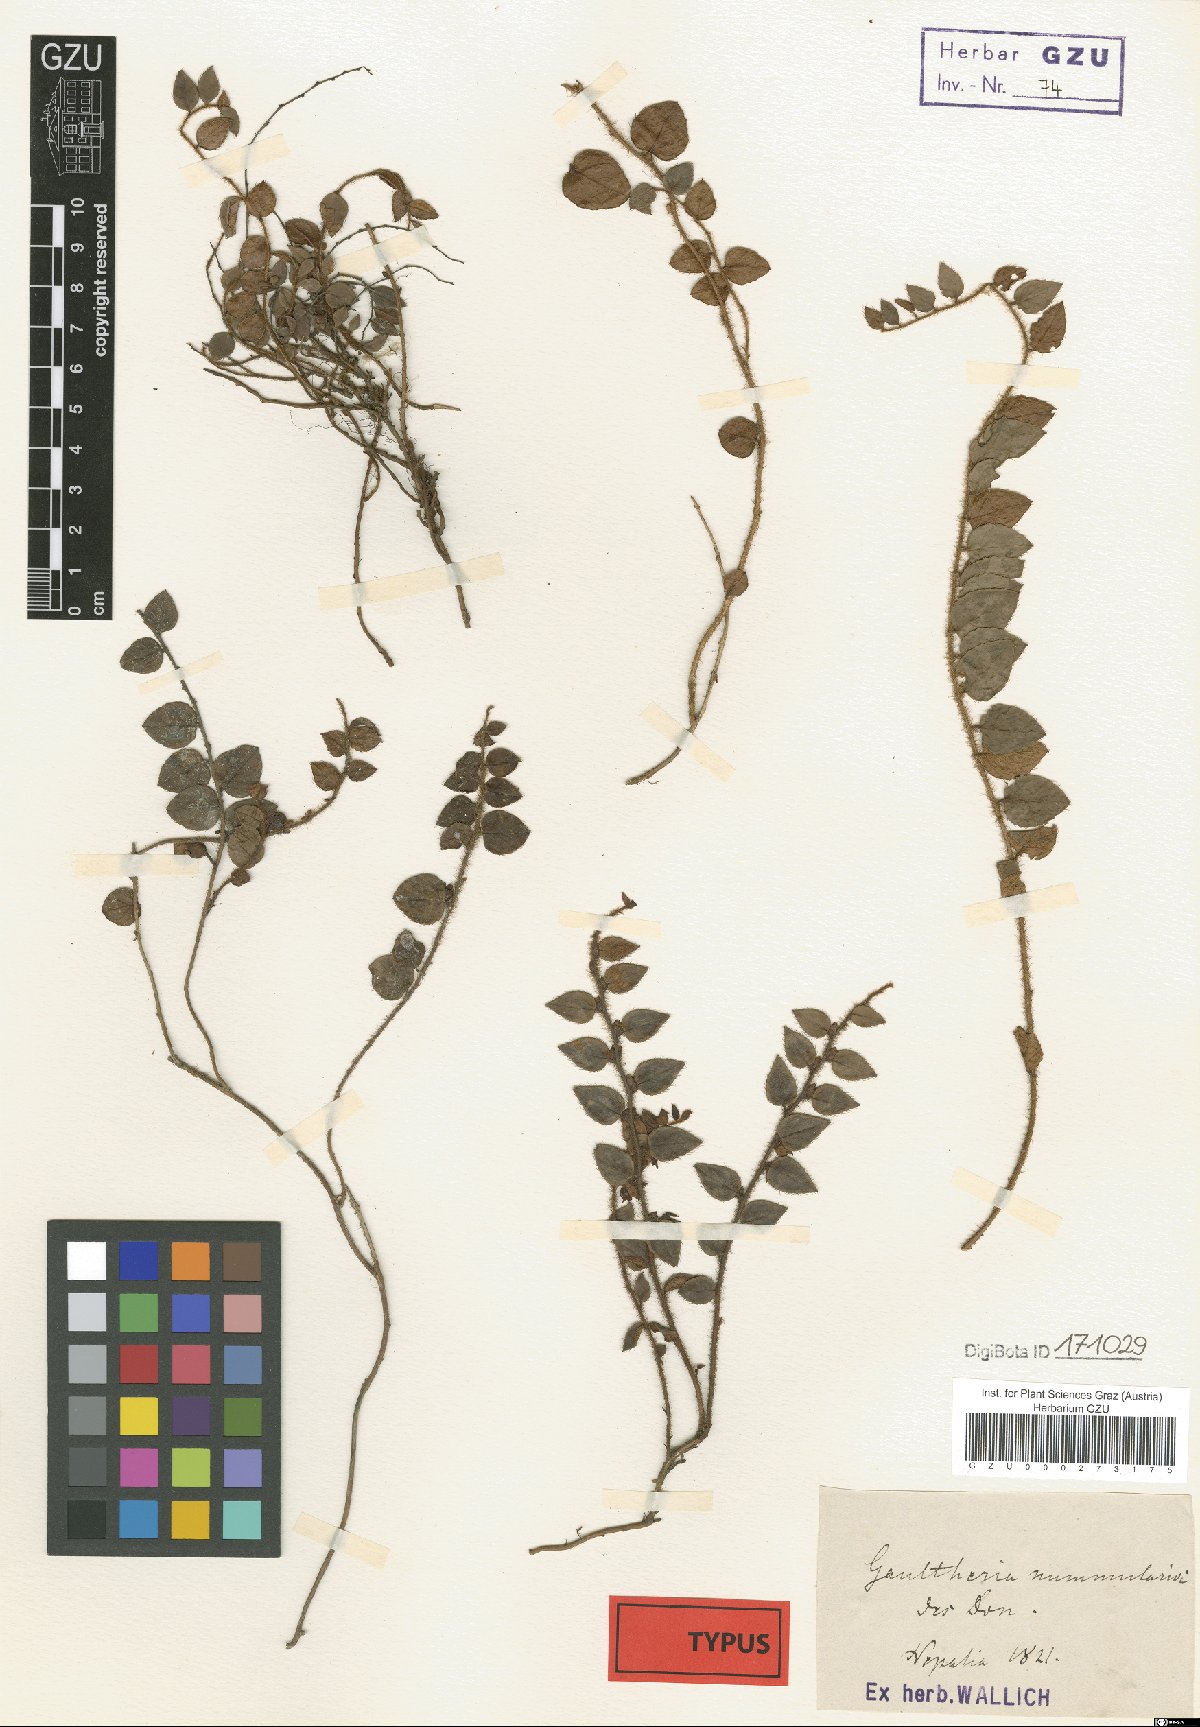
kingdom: Plantae
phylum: Tracheophyta
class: Magnoliopsida
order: Ericales
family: Ericaceae
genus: Gaultheria
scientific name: Gaultheria nummularioides
